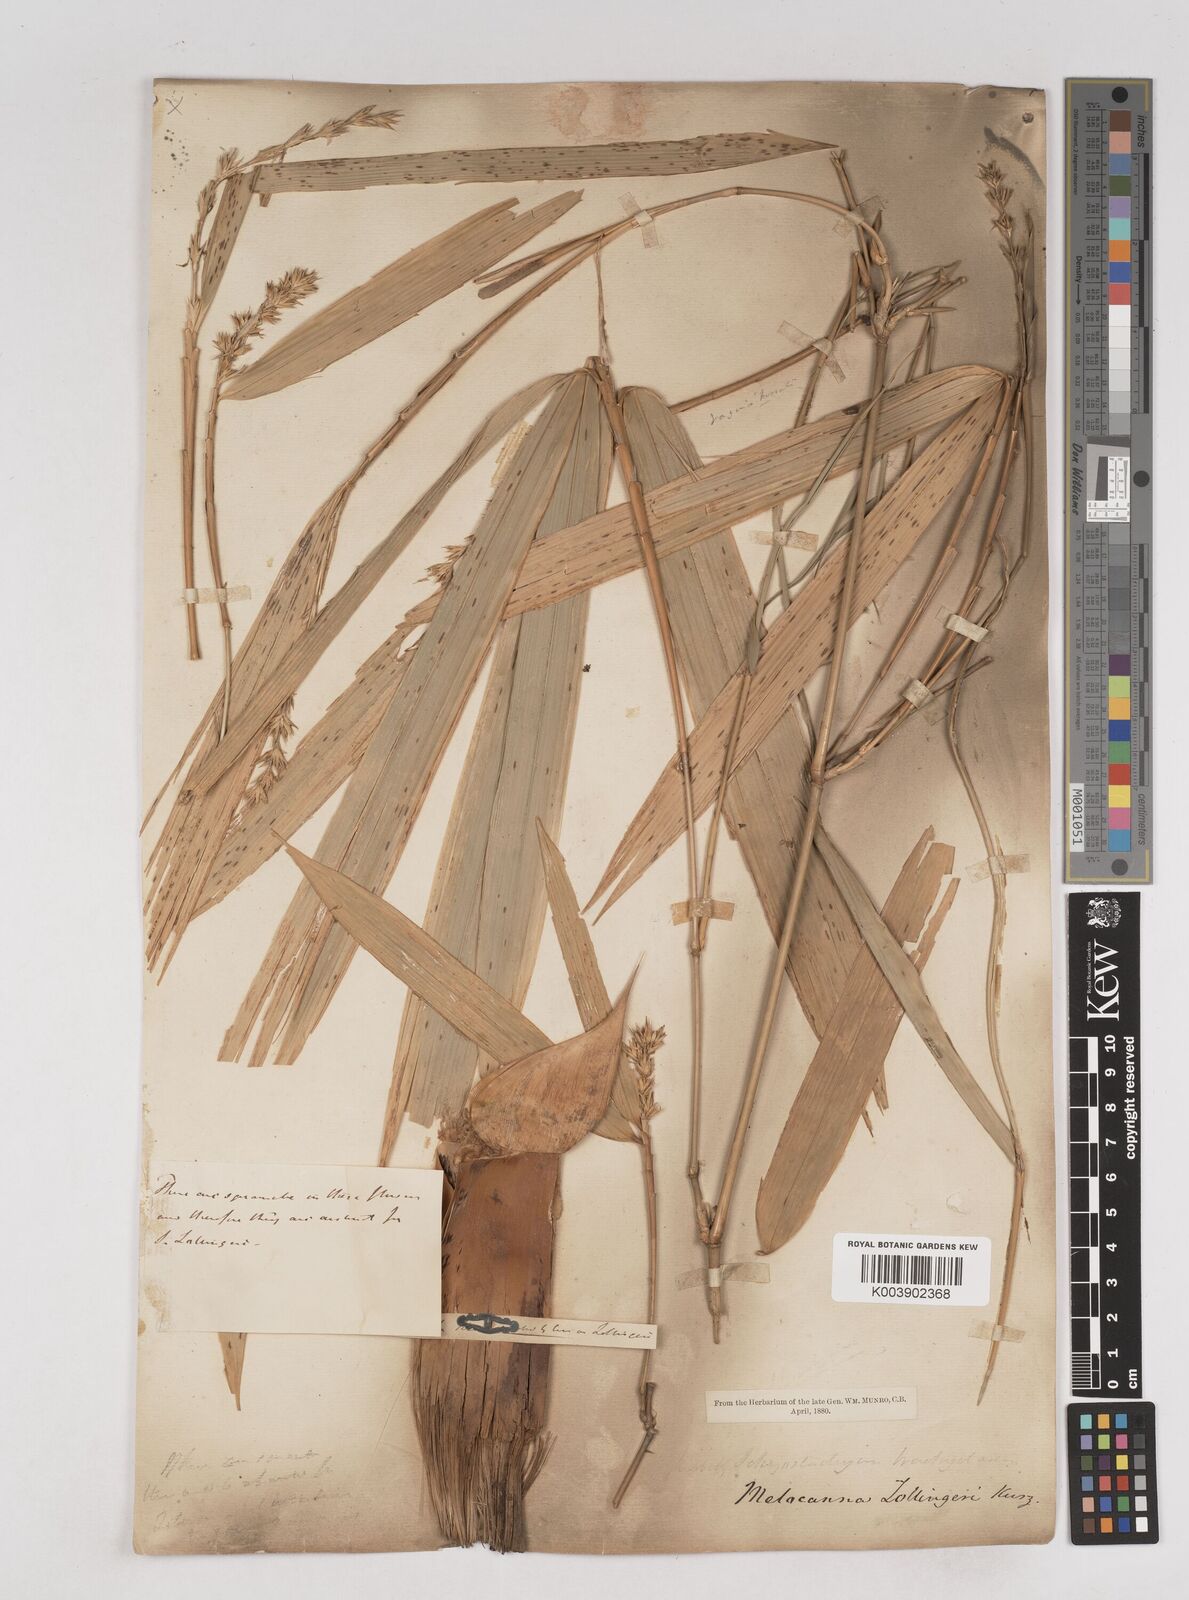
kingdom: Plantae
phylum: Tracheophyta
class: Liliopsida
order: Poales
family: Poaceae
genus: Schizostachyum
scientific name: Schizostachyum zollingeri
